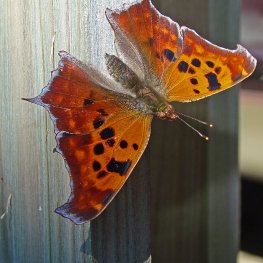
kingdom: Animalia
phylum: Arthropoda
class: Insecta
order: Lepidoptera
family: Nymphalidae
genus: Polygonia
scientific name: Polygonia interrogationis
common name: Question Mark
